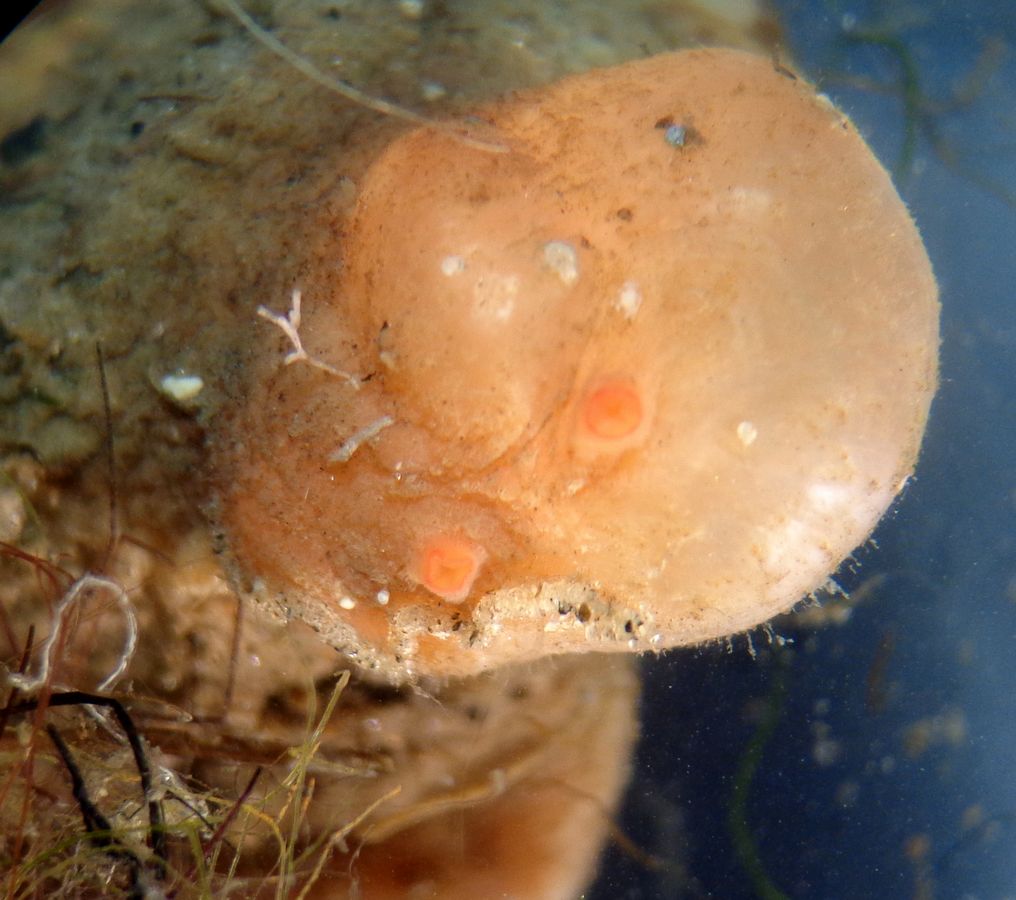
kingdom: Animalia
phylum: Chordata
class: Ascidiacea
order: Stolidobranchia
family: Styelidae
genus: Styela
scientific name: Styela rustica
